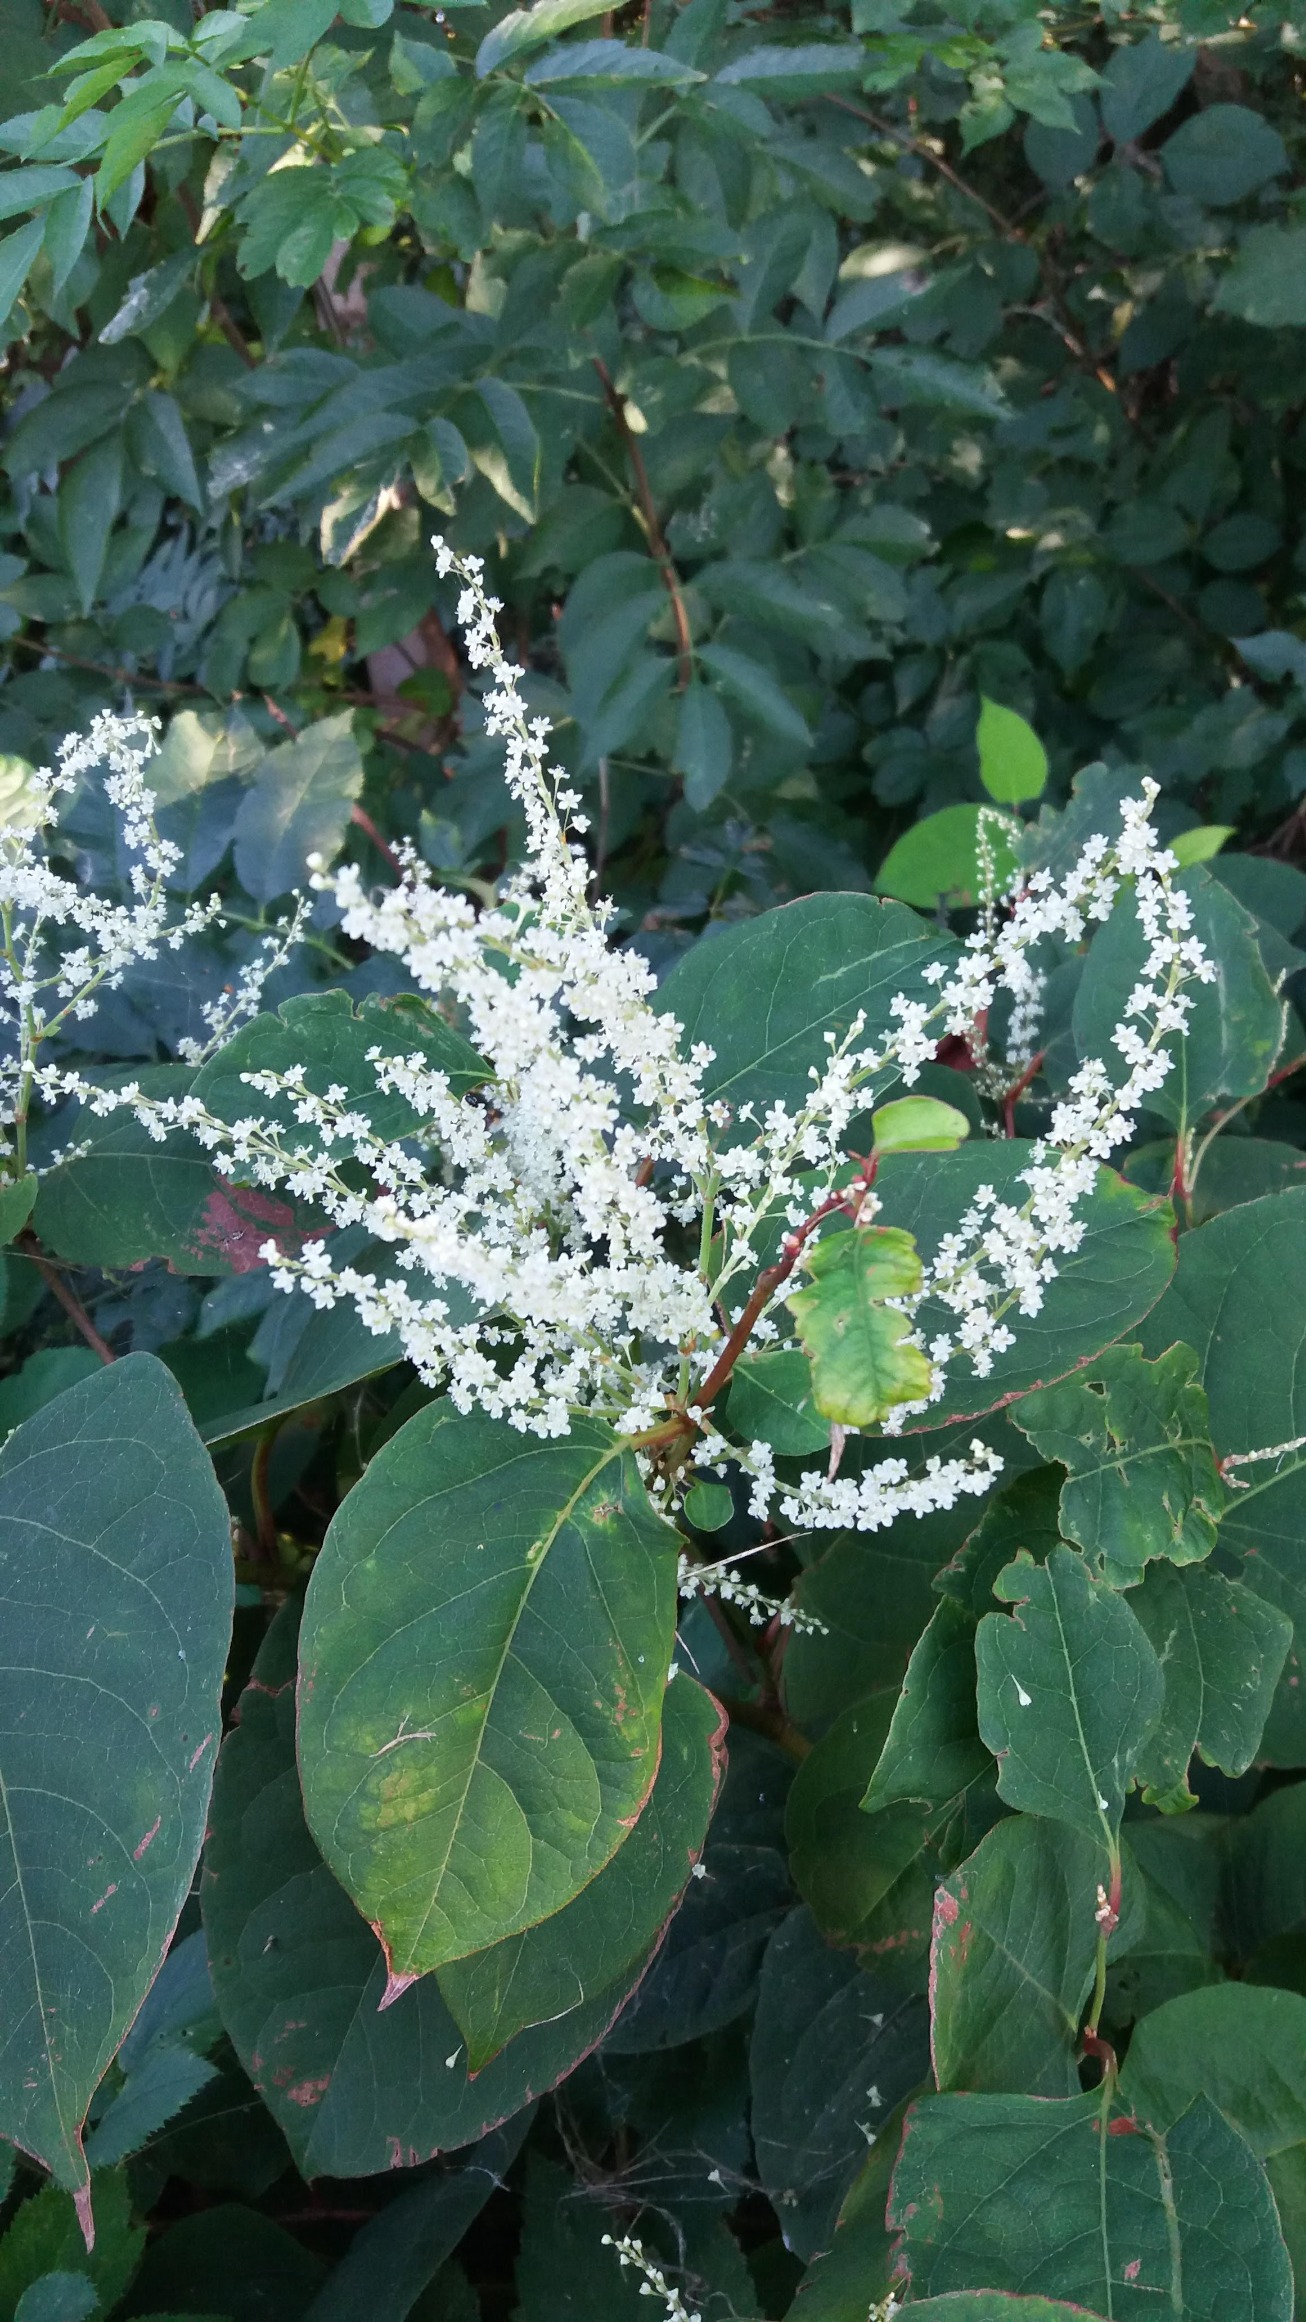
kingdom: Plantae
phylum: Tracheophyta
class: Magnoliopsida
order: Caryophyllales
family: Polygonaceae
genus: Reynoutria
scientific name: Reynoutria japonica
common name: Japan-pileurt
